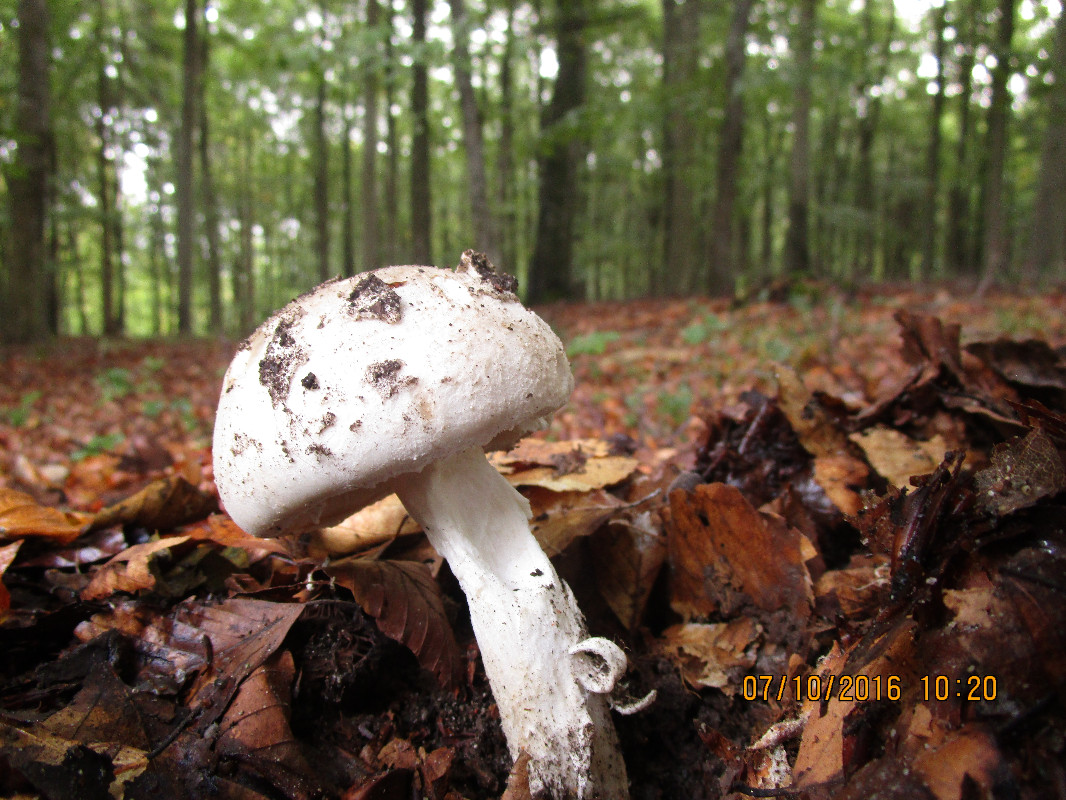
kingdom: Fungi
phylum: Basidiomycota
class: Agaricomycetes
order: Agaricales
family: Amanitaceae
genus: Amanita
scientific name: Amanita
